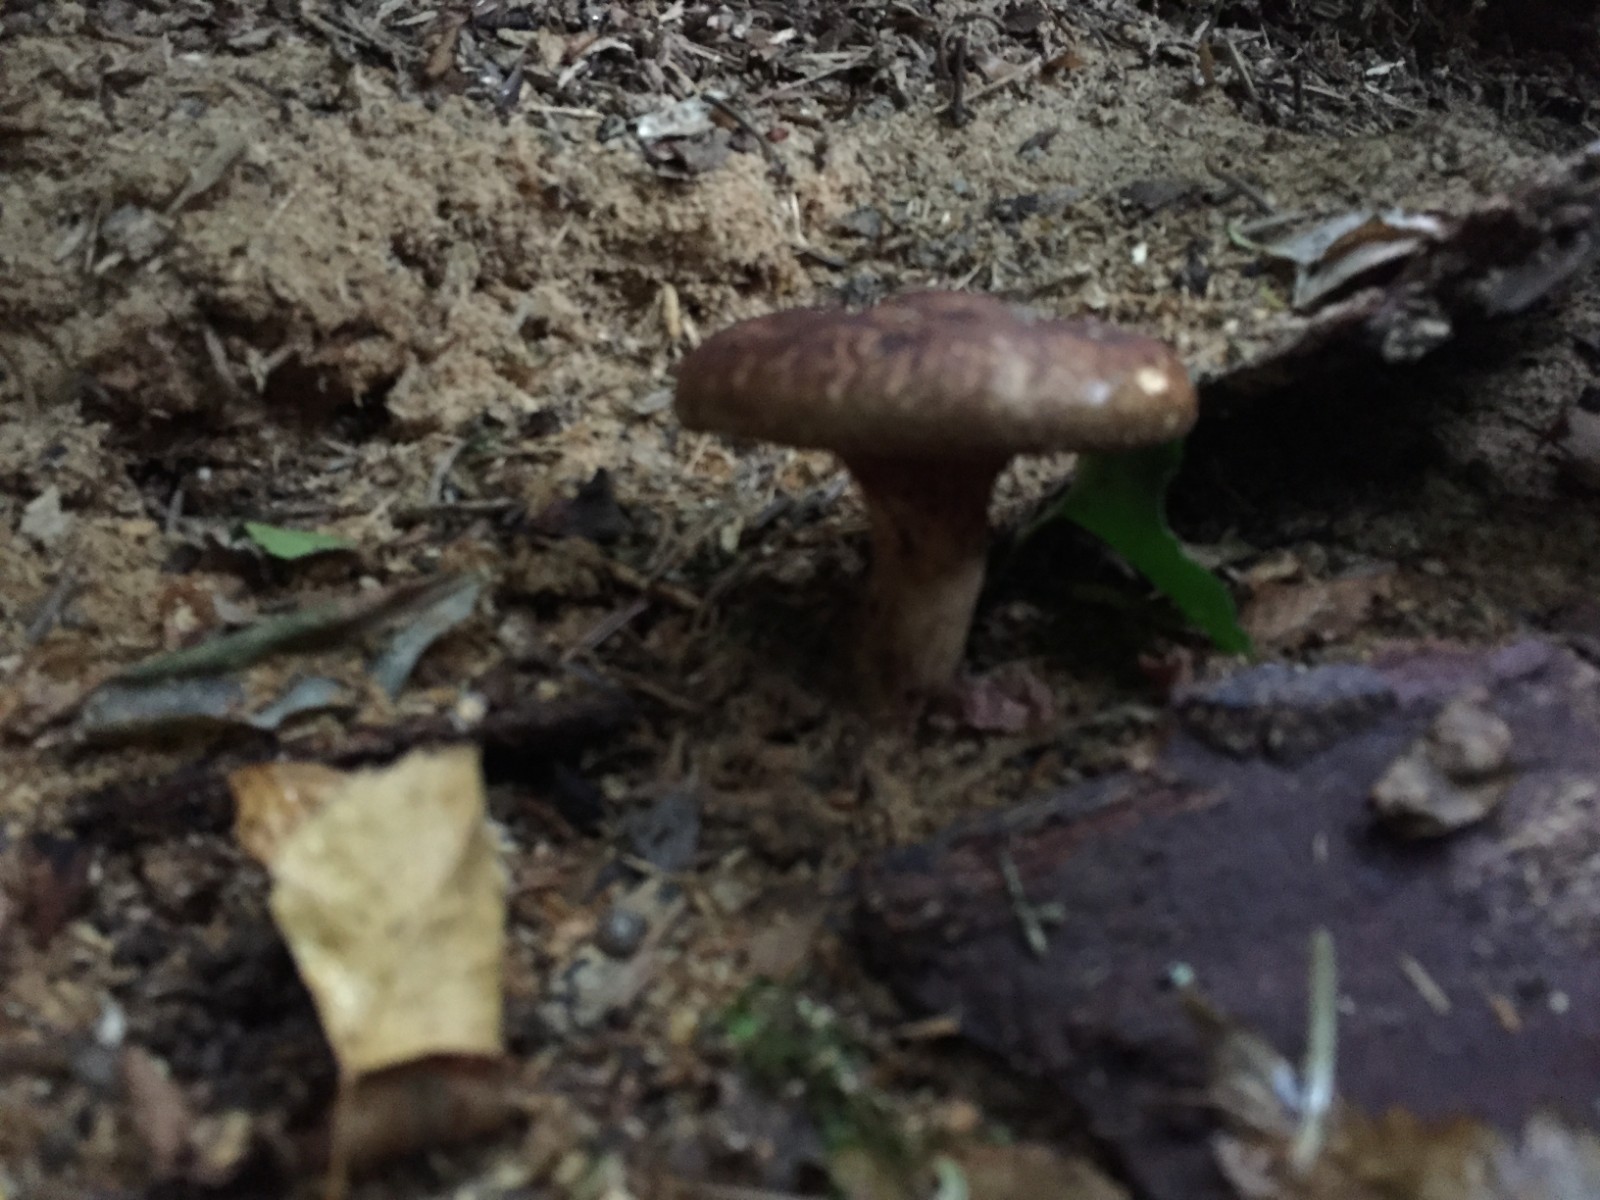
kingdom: Fungi
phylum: Basidiomycota
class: Agaricomycetes
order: Boletales
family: Paxillaceae
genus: Paxillus
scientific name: Paxillus involutus
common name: almindelig netbladhat
